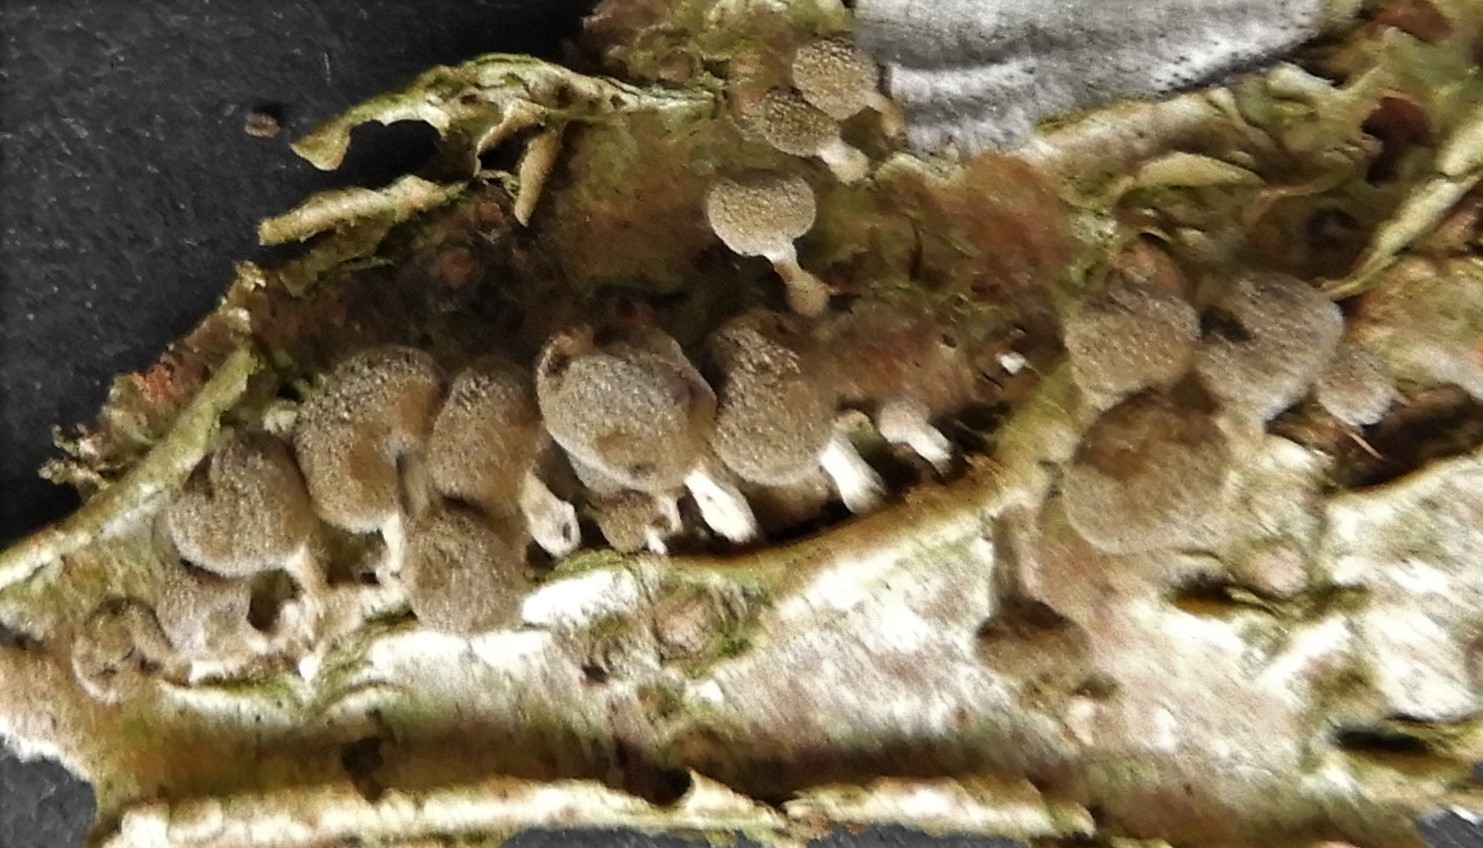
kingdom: Fungi
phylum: Basidiomycota
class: Atractiellomycetes
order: Atractiellales
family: Phleogenaceae
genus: Phleogena
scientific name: Phleogena faginea
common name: pudderkølle
